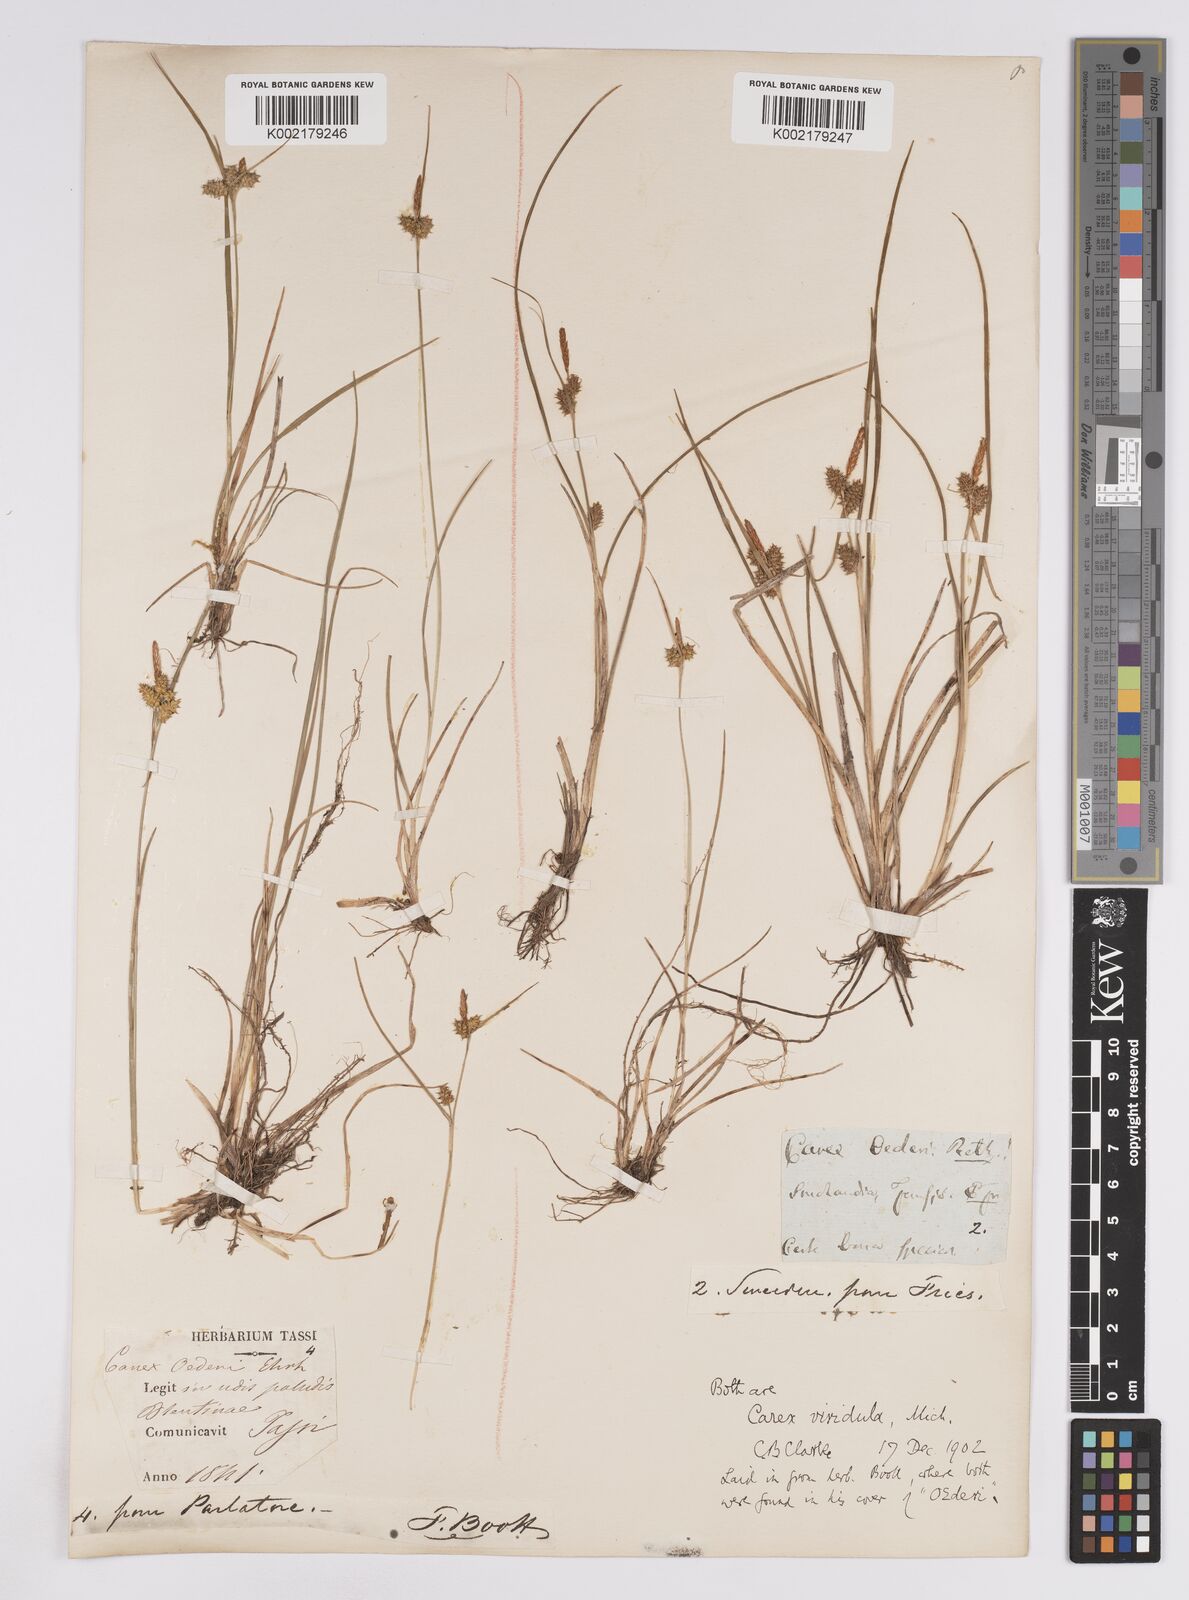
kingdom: Plantae
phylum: Tracheophyta
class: Liliopsida
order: Poales
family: Cyperaceae
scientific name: Cyperaceae
